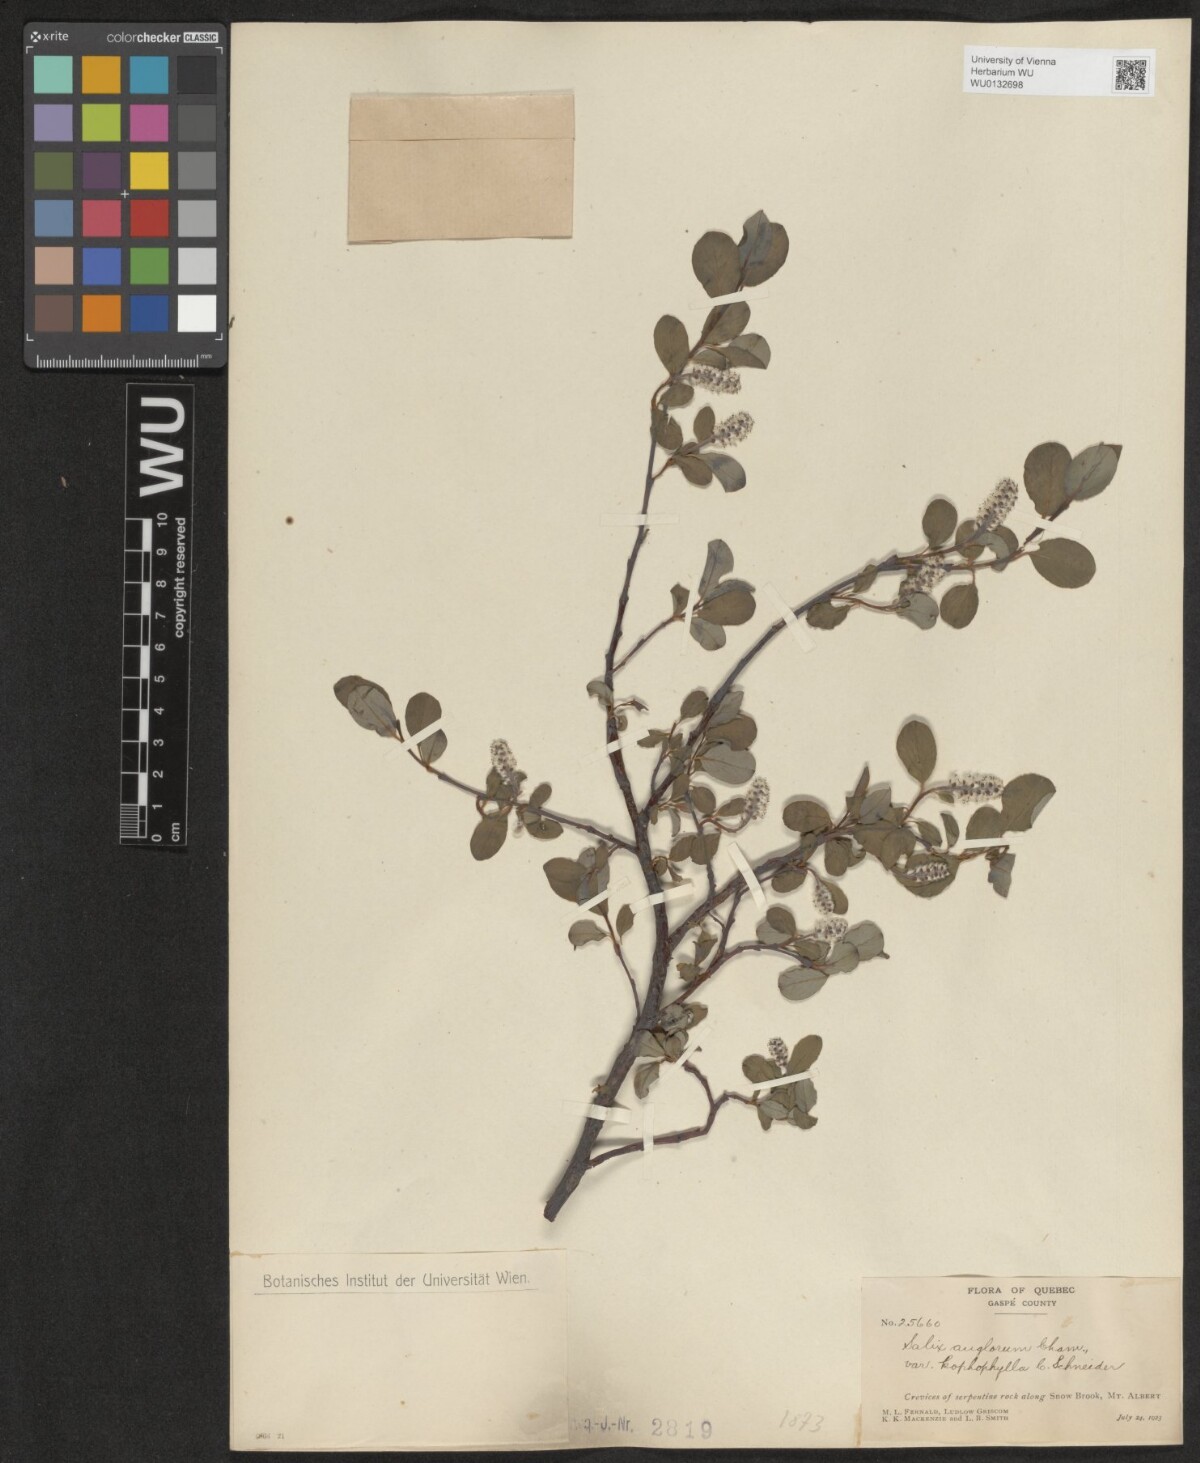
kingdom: Plantae
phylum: Tracheophyta
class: Magnoliopsida
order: Malpighiales
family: Salicaceae
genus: Salix
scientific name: Salix arctica
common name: Arctic willow
